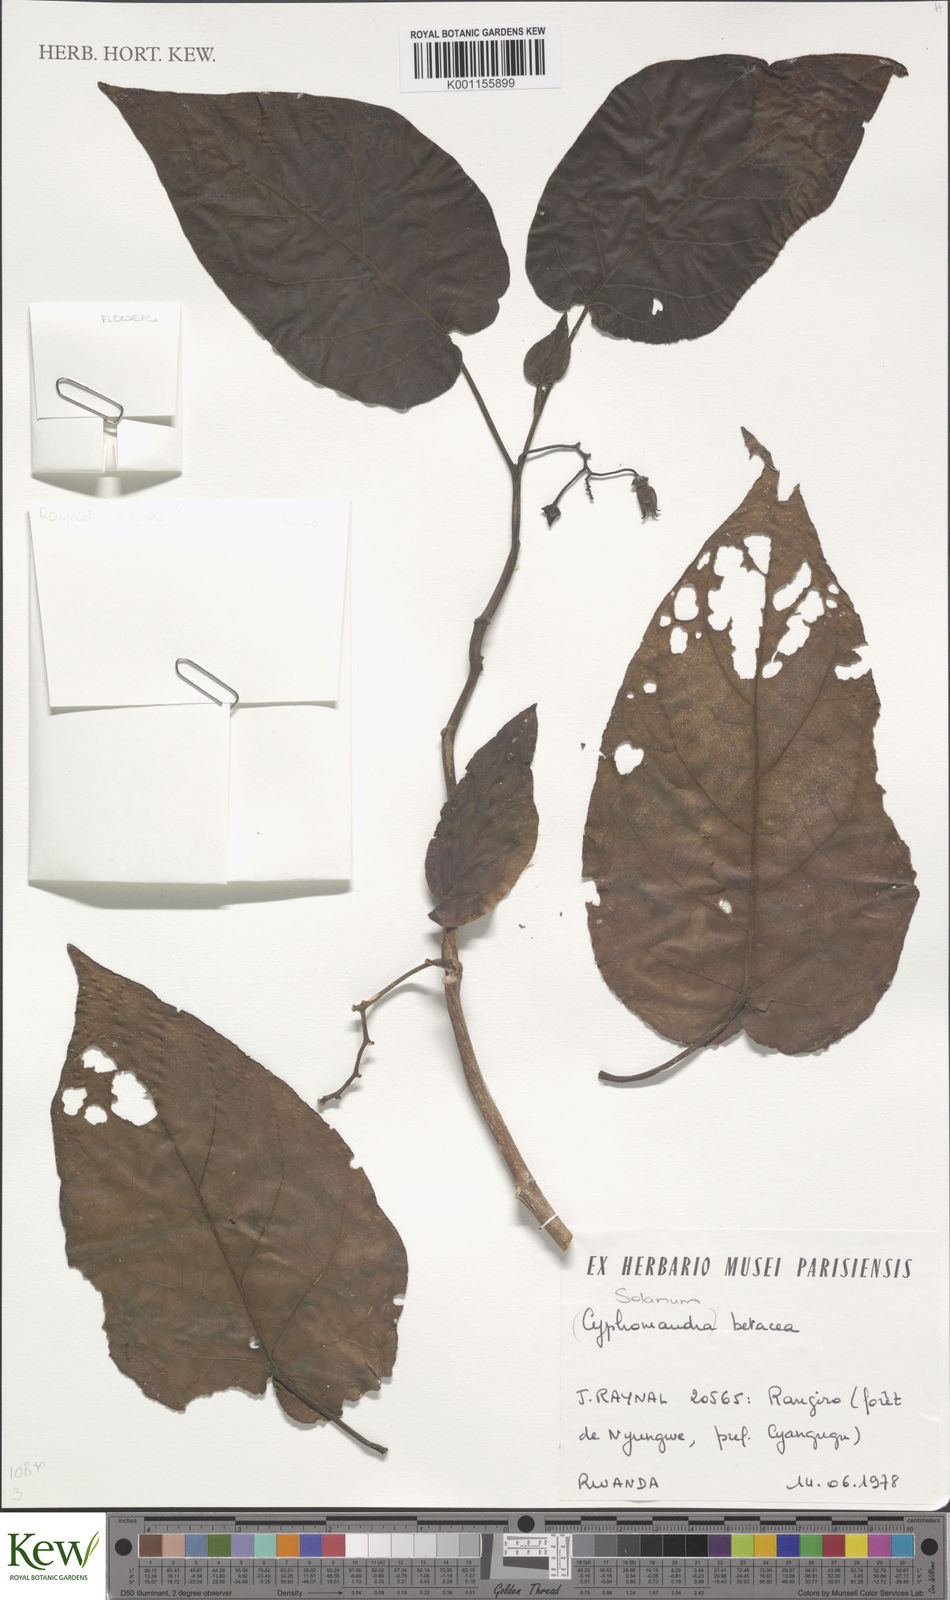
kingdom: Plantae
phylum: Tracheophyta
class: Magnoliopsida
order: Solanales
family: Solanaceae
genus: Solanum
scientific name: Solanum betaceum
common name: Tamarillo
